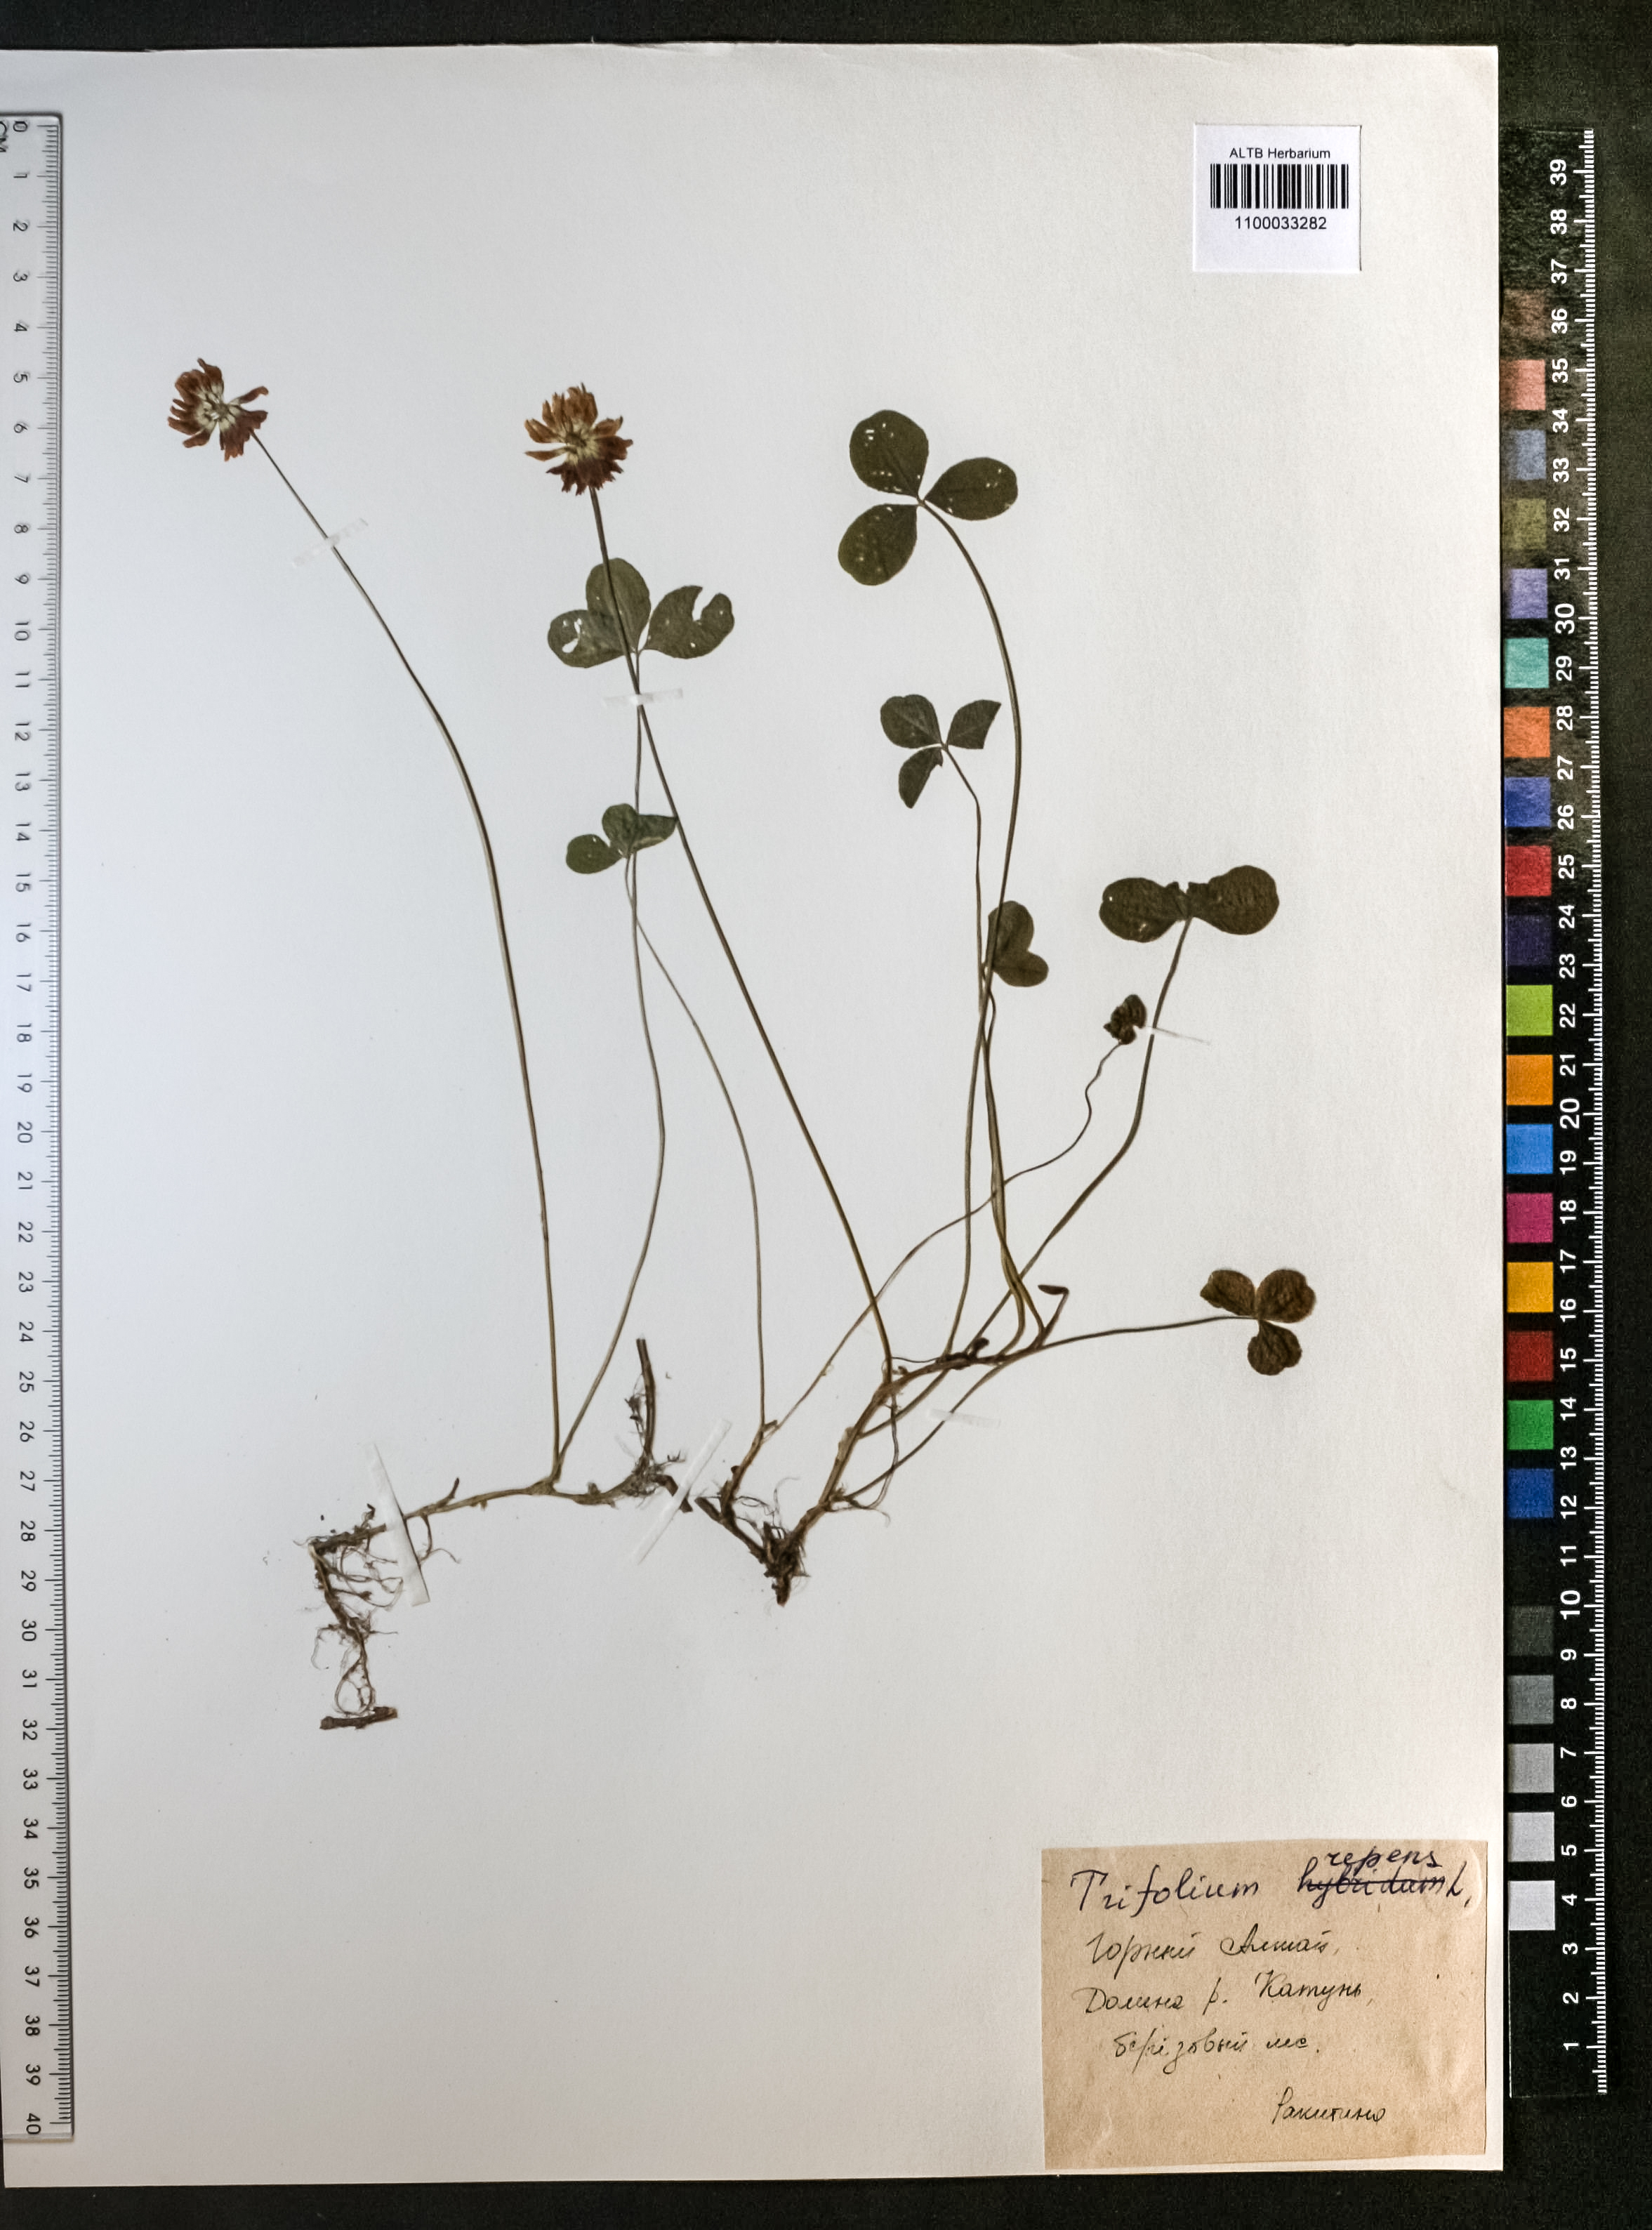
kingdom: Plantae
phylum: Tracheophyta
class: Magnoliopsida
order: Fabales
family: Fabaceae
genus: Trifolium
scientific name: Trifolium repens
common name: White clover
